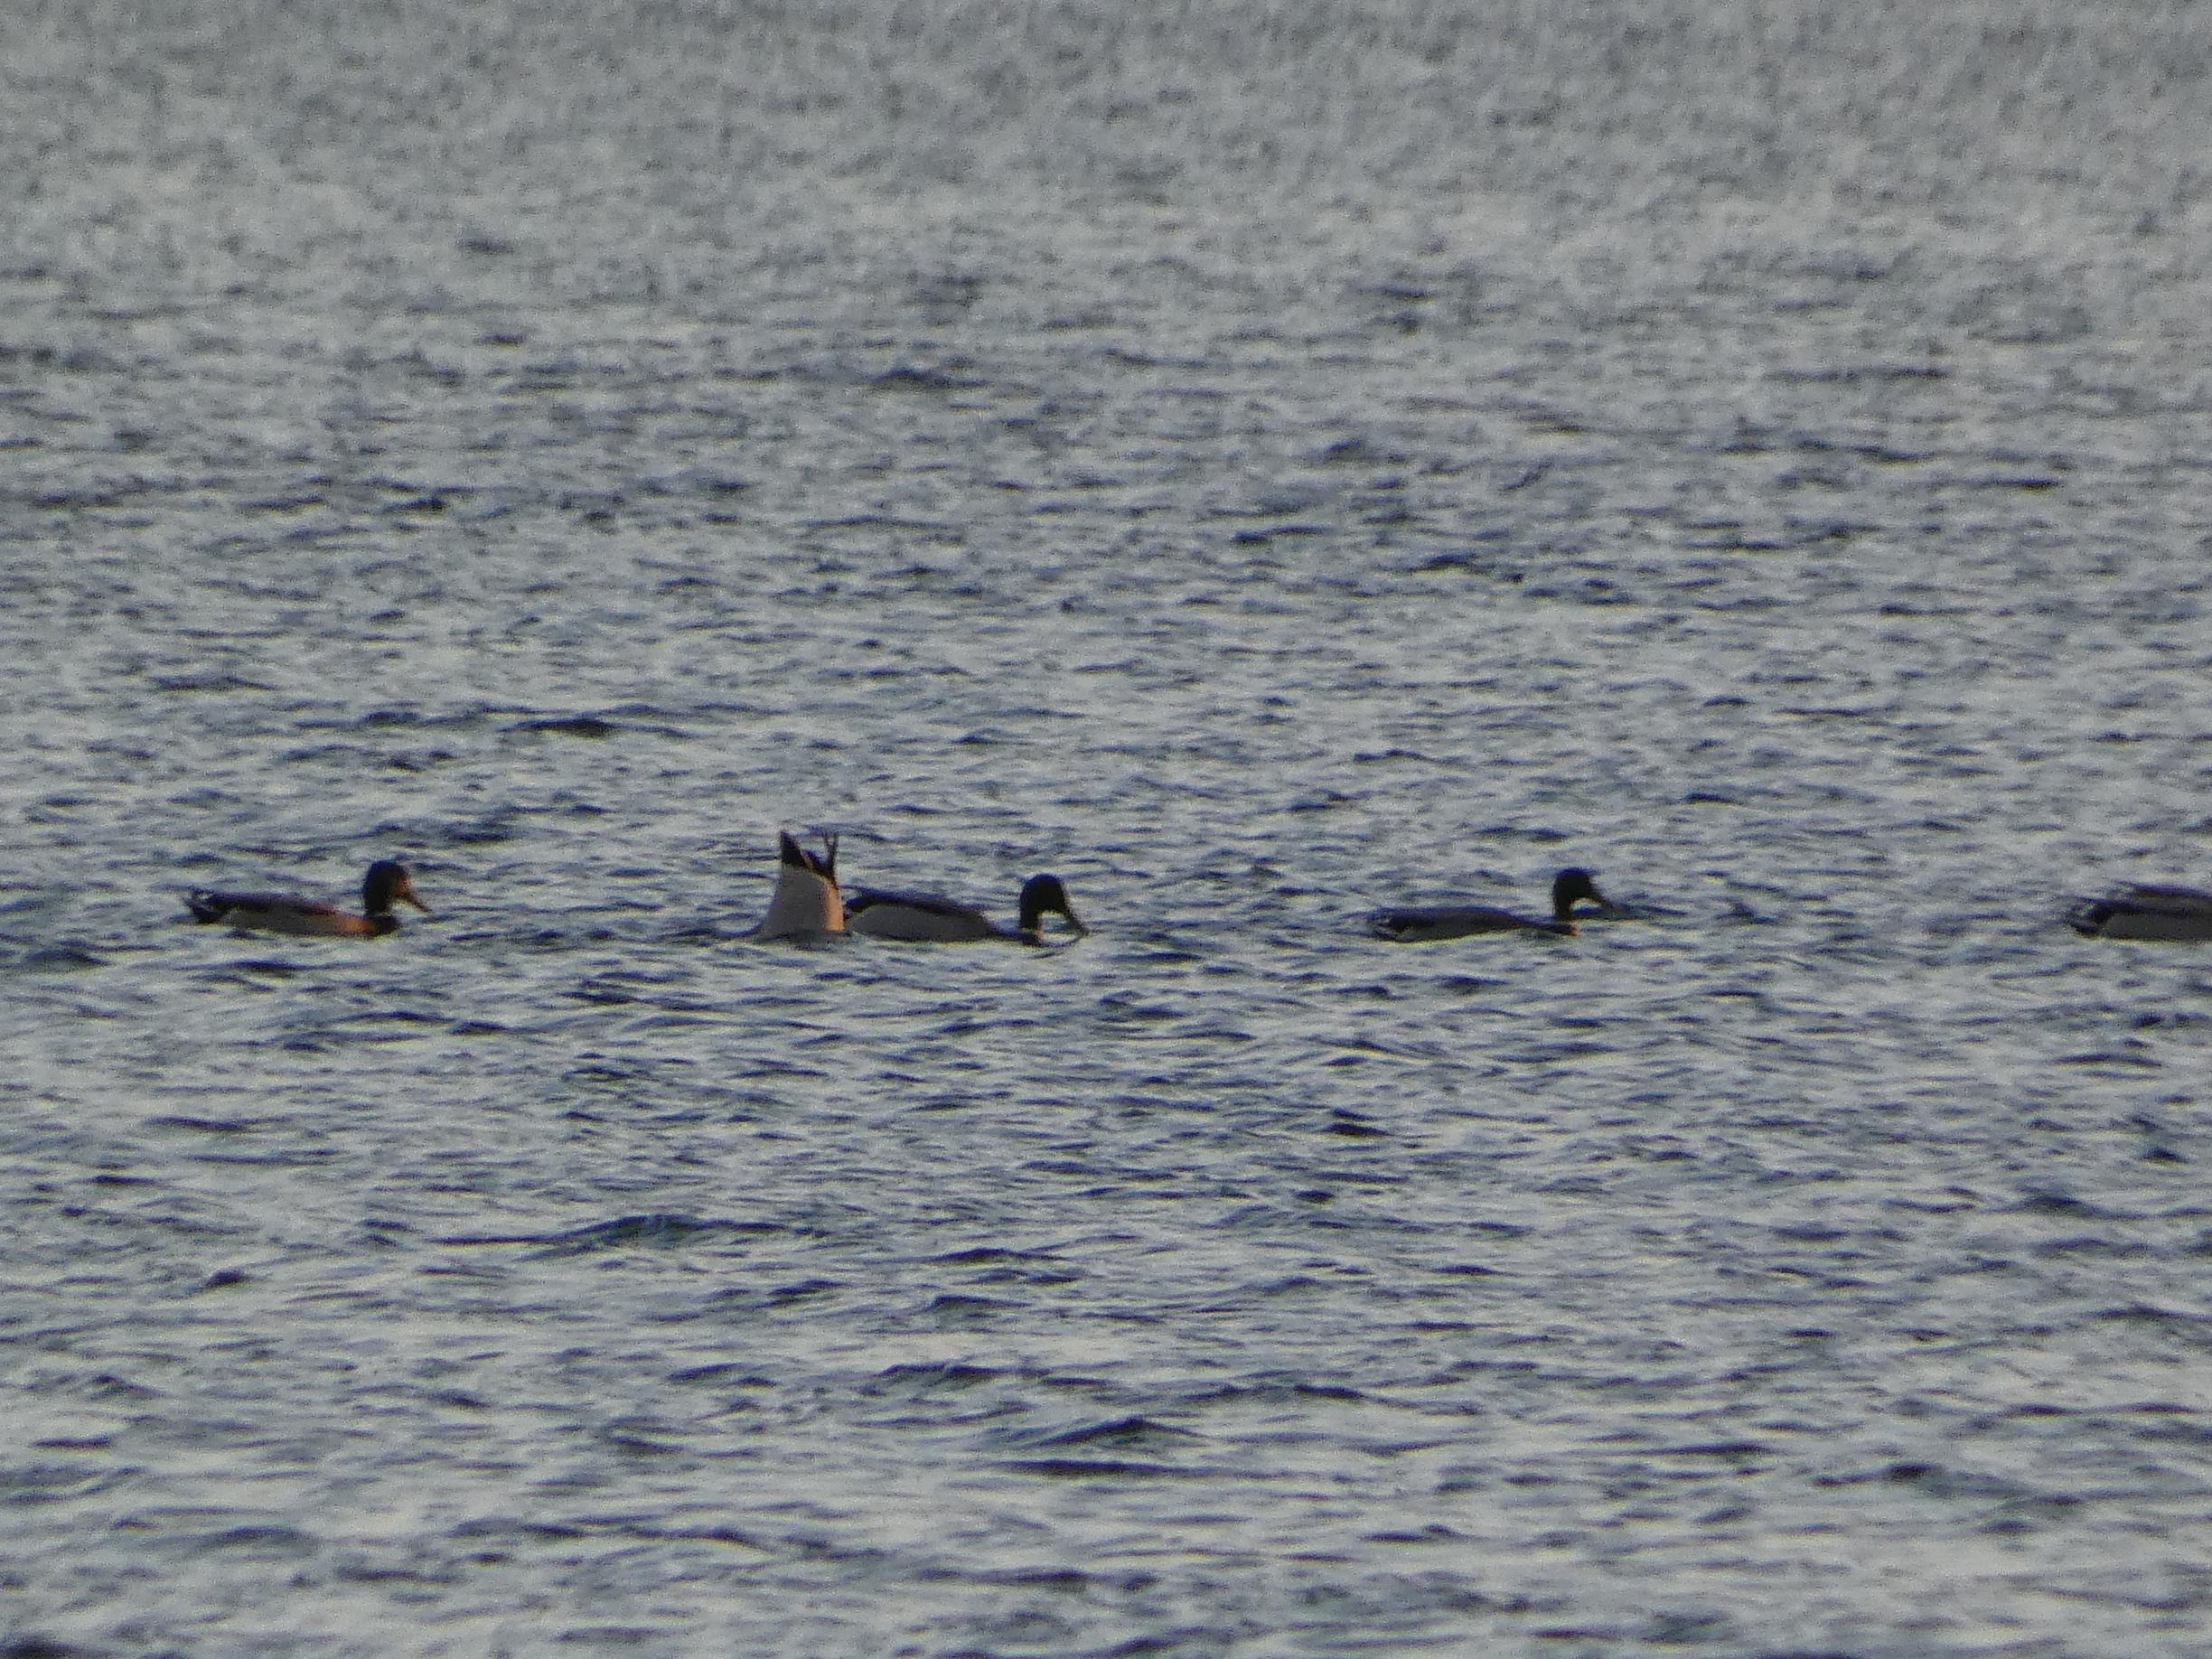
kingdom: Animalia
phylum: Chordata
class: Aves
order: Anseriformes
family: Anatidae
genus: Anas
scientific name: Anas platyrhynchos
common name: Gråand
